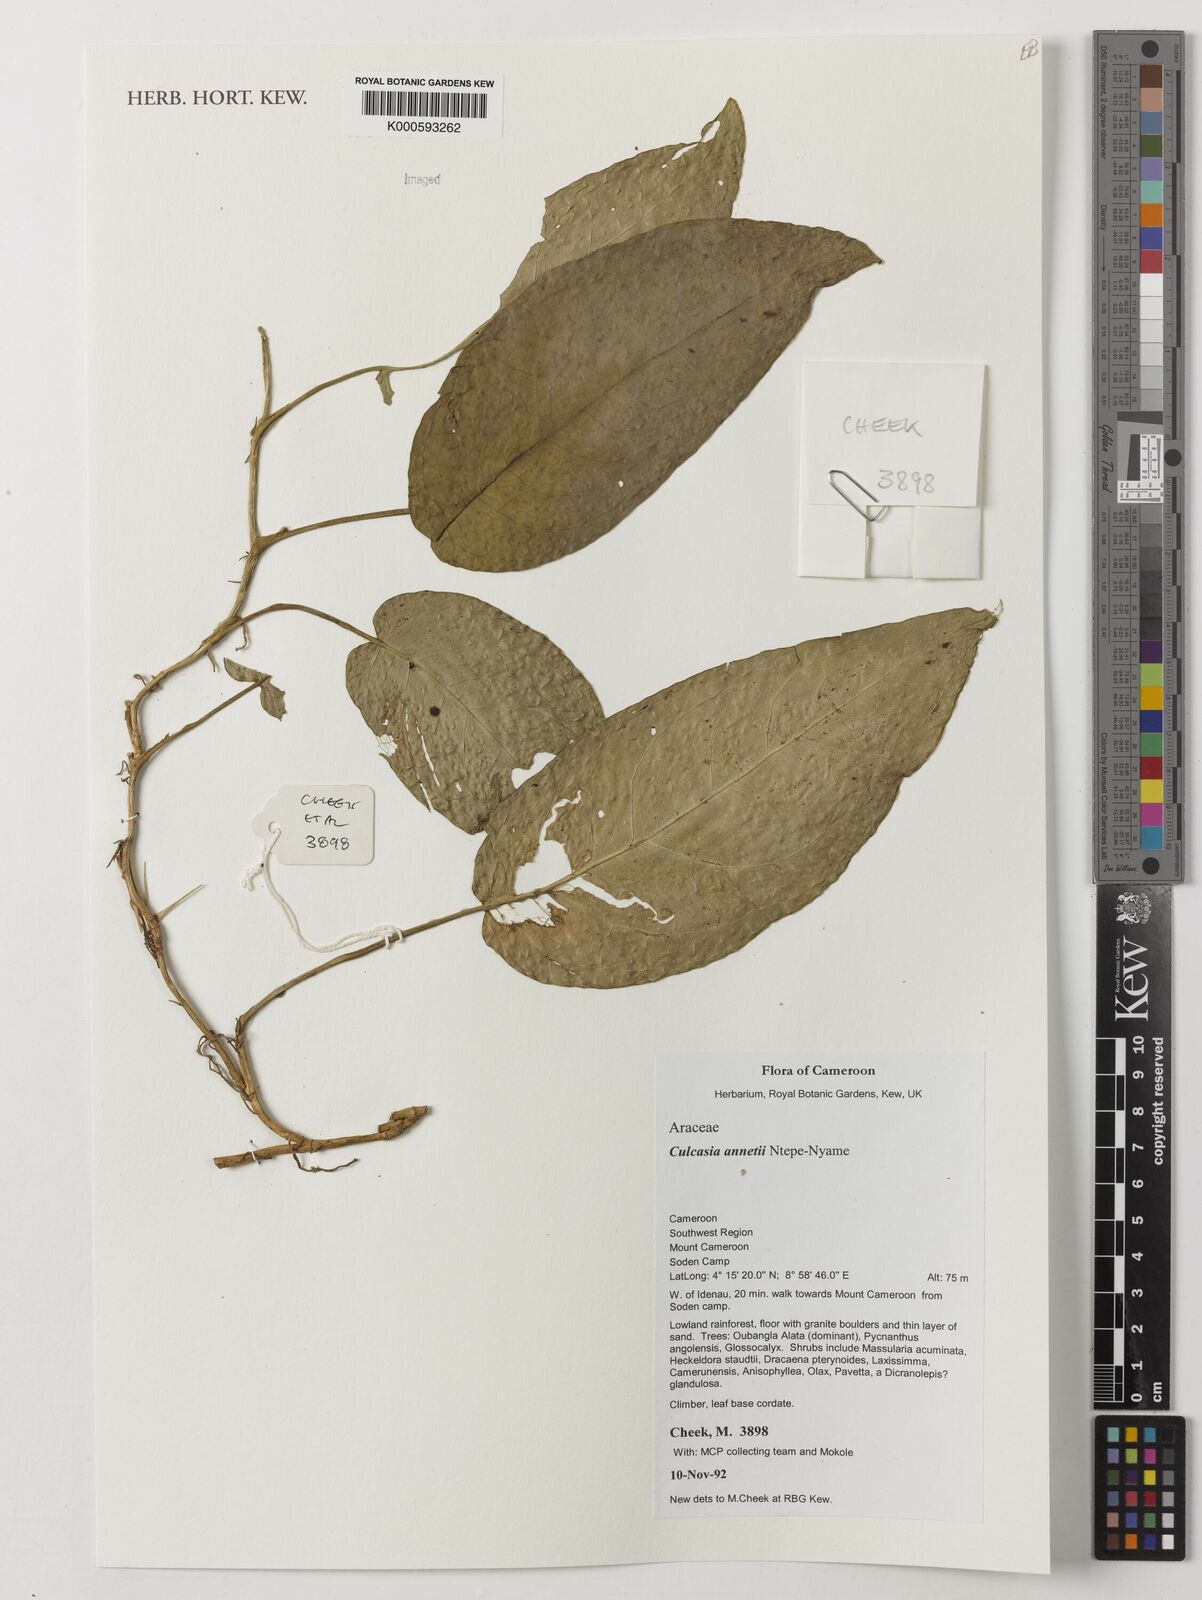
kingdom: Plantae
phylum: Tracheophyta
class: Liliopsida
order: Alismatales
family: Araceae
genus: Culcasia
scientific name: Culcasia annetii
